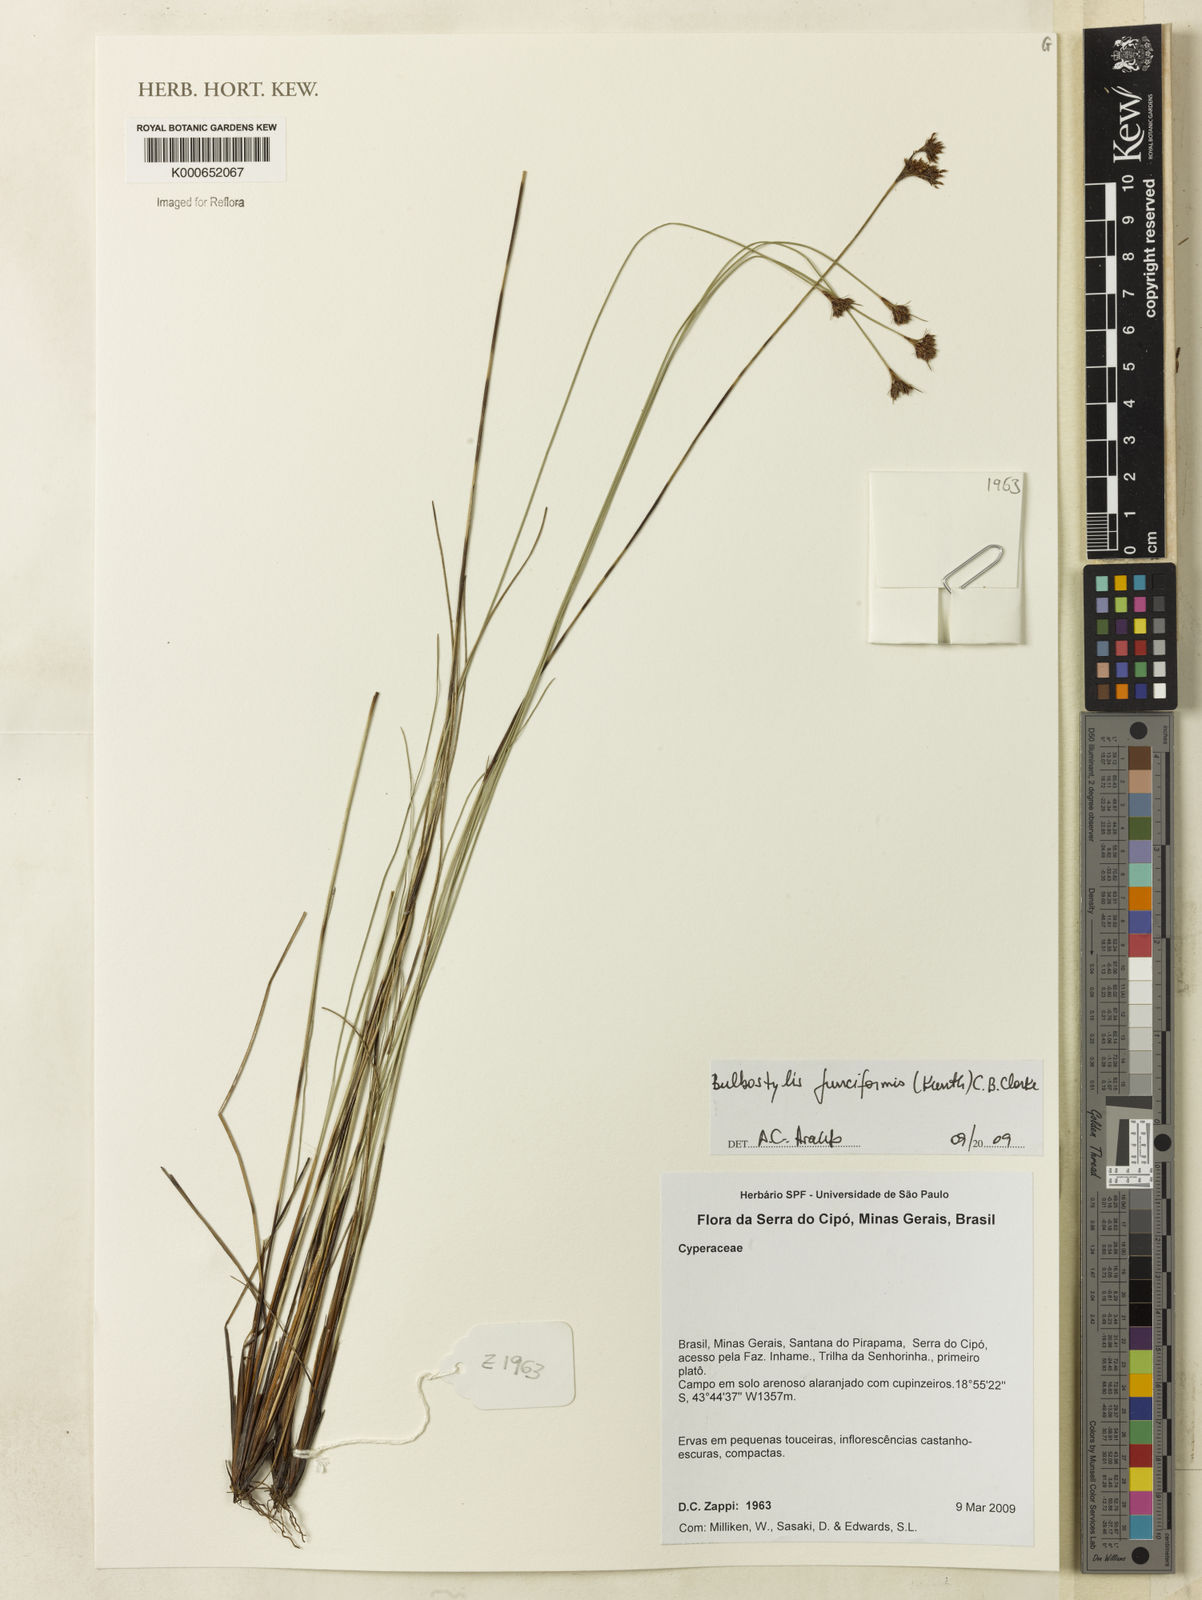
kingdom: Plantae
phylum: Tracheophyta
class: Liliopsida
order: Poales
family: Cyperaceae
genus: Bulbostylis
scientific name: Bulbostylis junciformis
